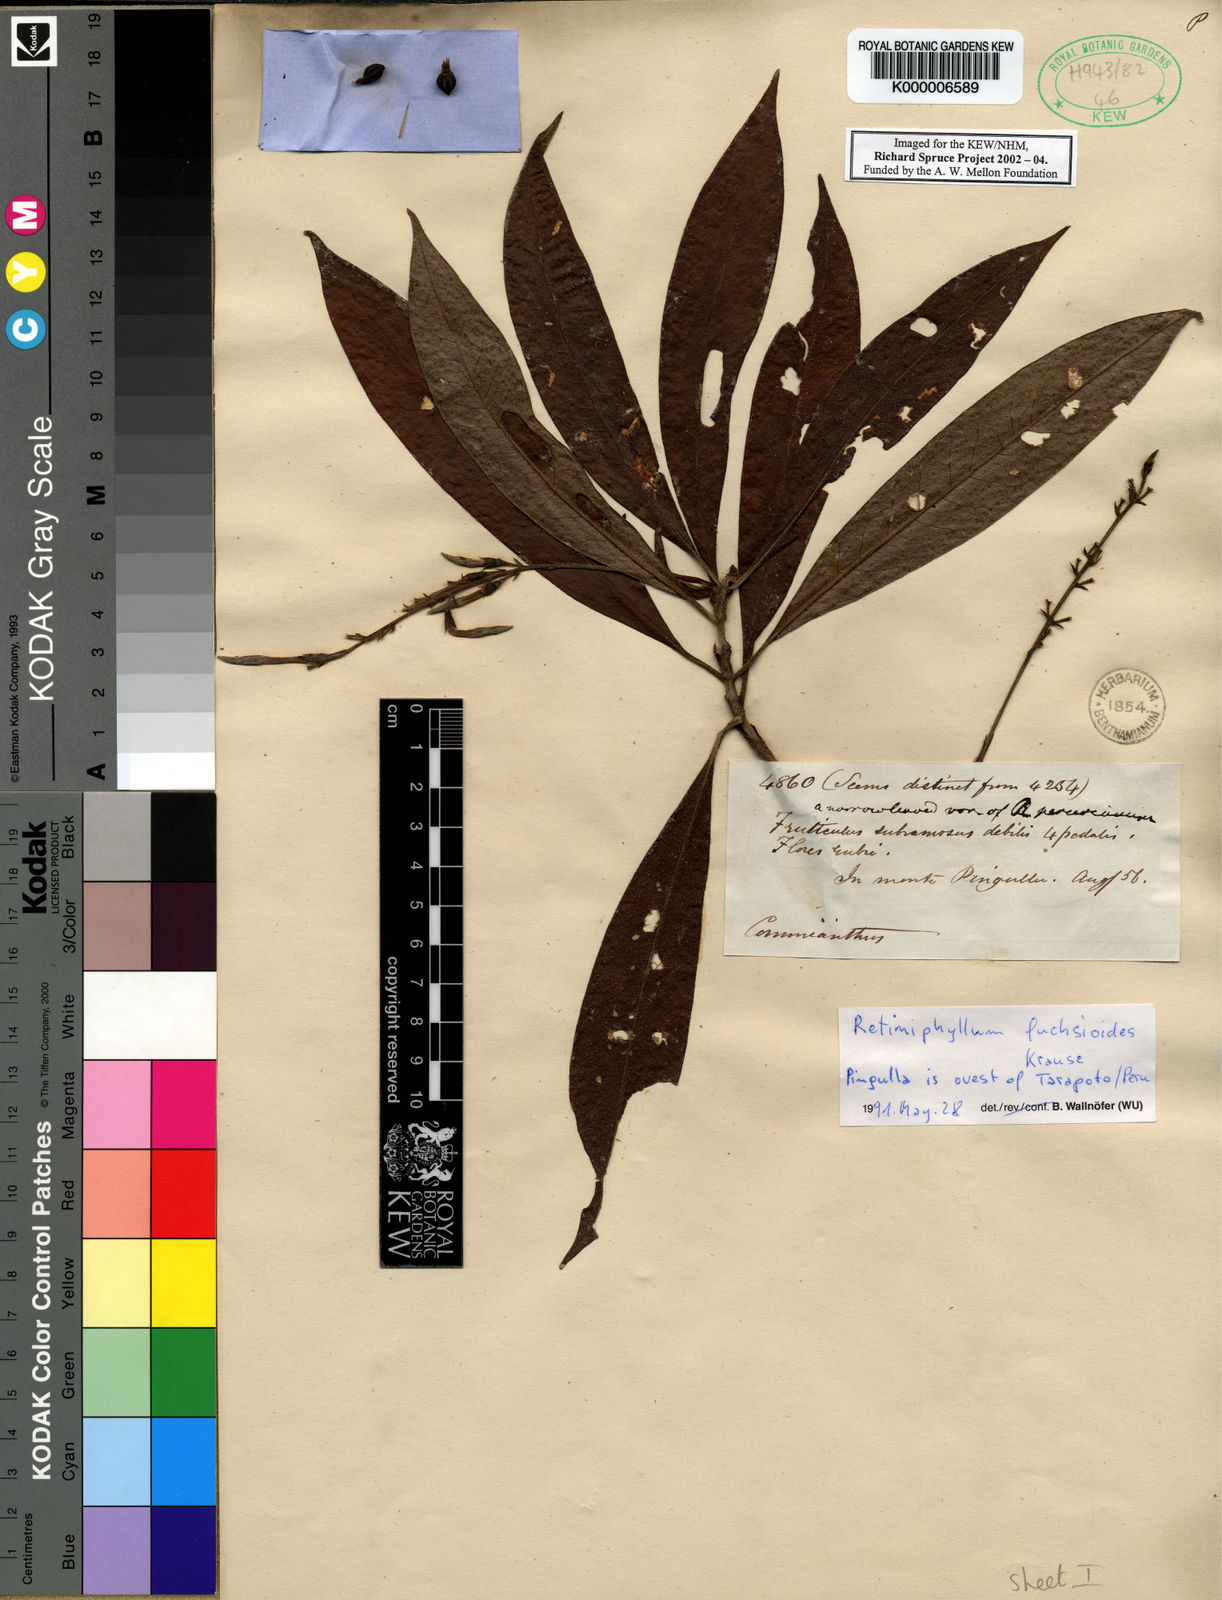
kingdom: Plantae
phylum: Tracheophyta
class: Magnoliopsida
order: Gentianales
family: Rubiaceae
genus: Retiniphyllum
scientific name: Retiniphyllum fuchsioides
